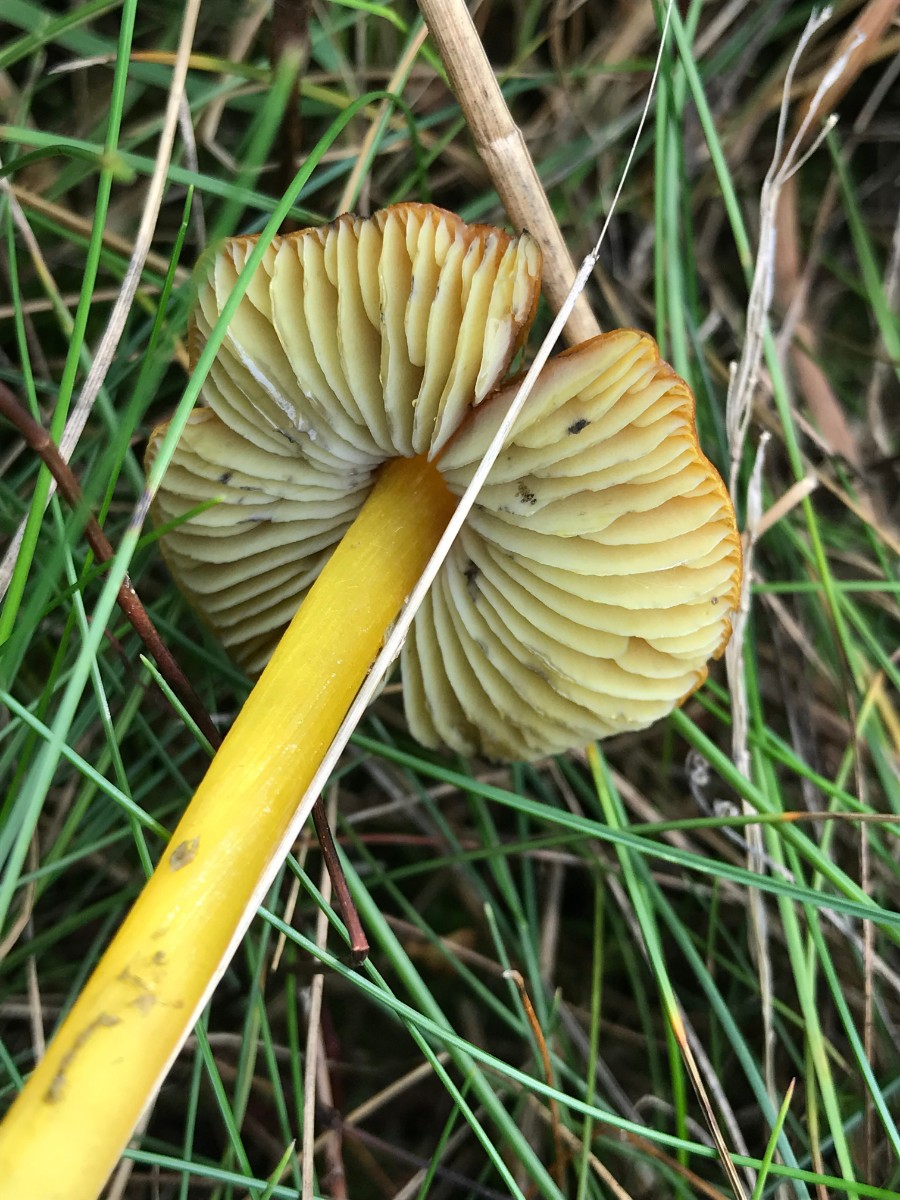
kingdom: Fungi
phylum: Basidiomycota
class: Agaricomycetes
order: Agaricales
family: Hygrophoraceae
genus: Hygrocybe
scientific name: Hygrocybe conica
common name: kegle-vokshat
